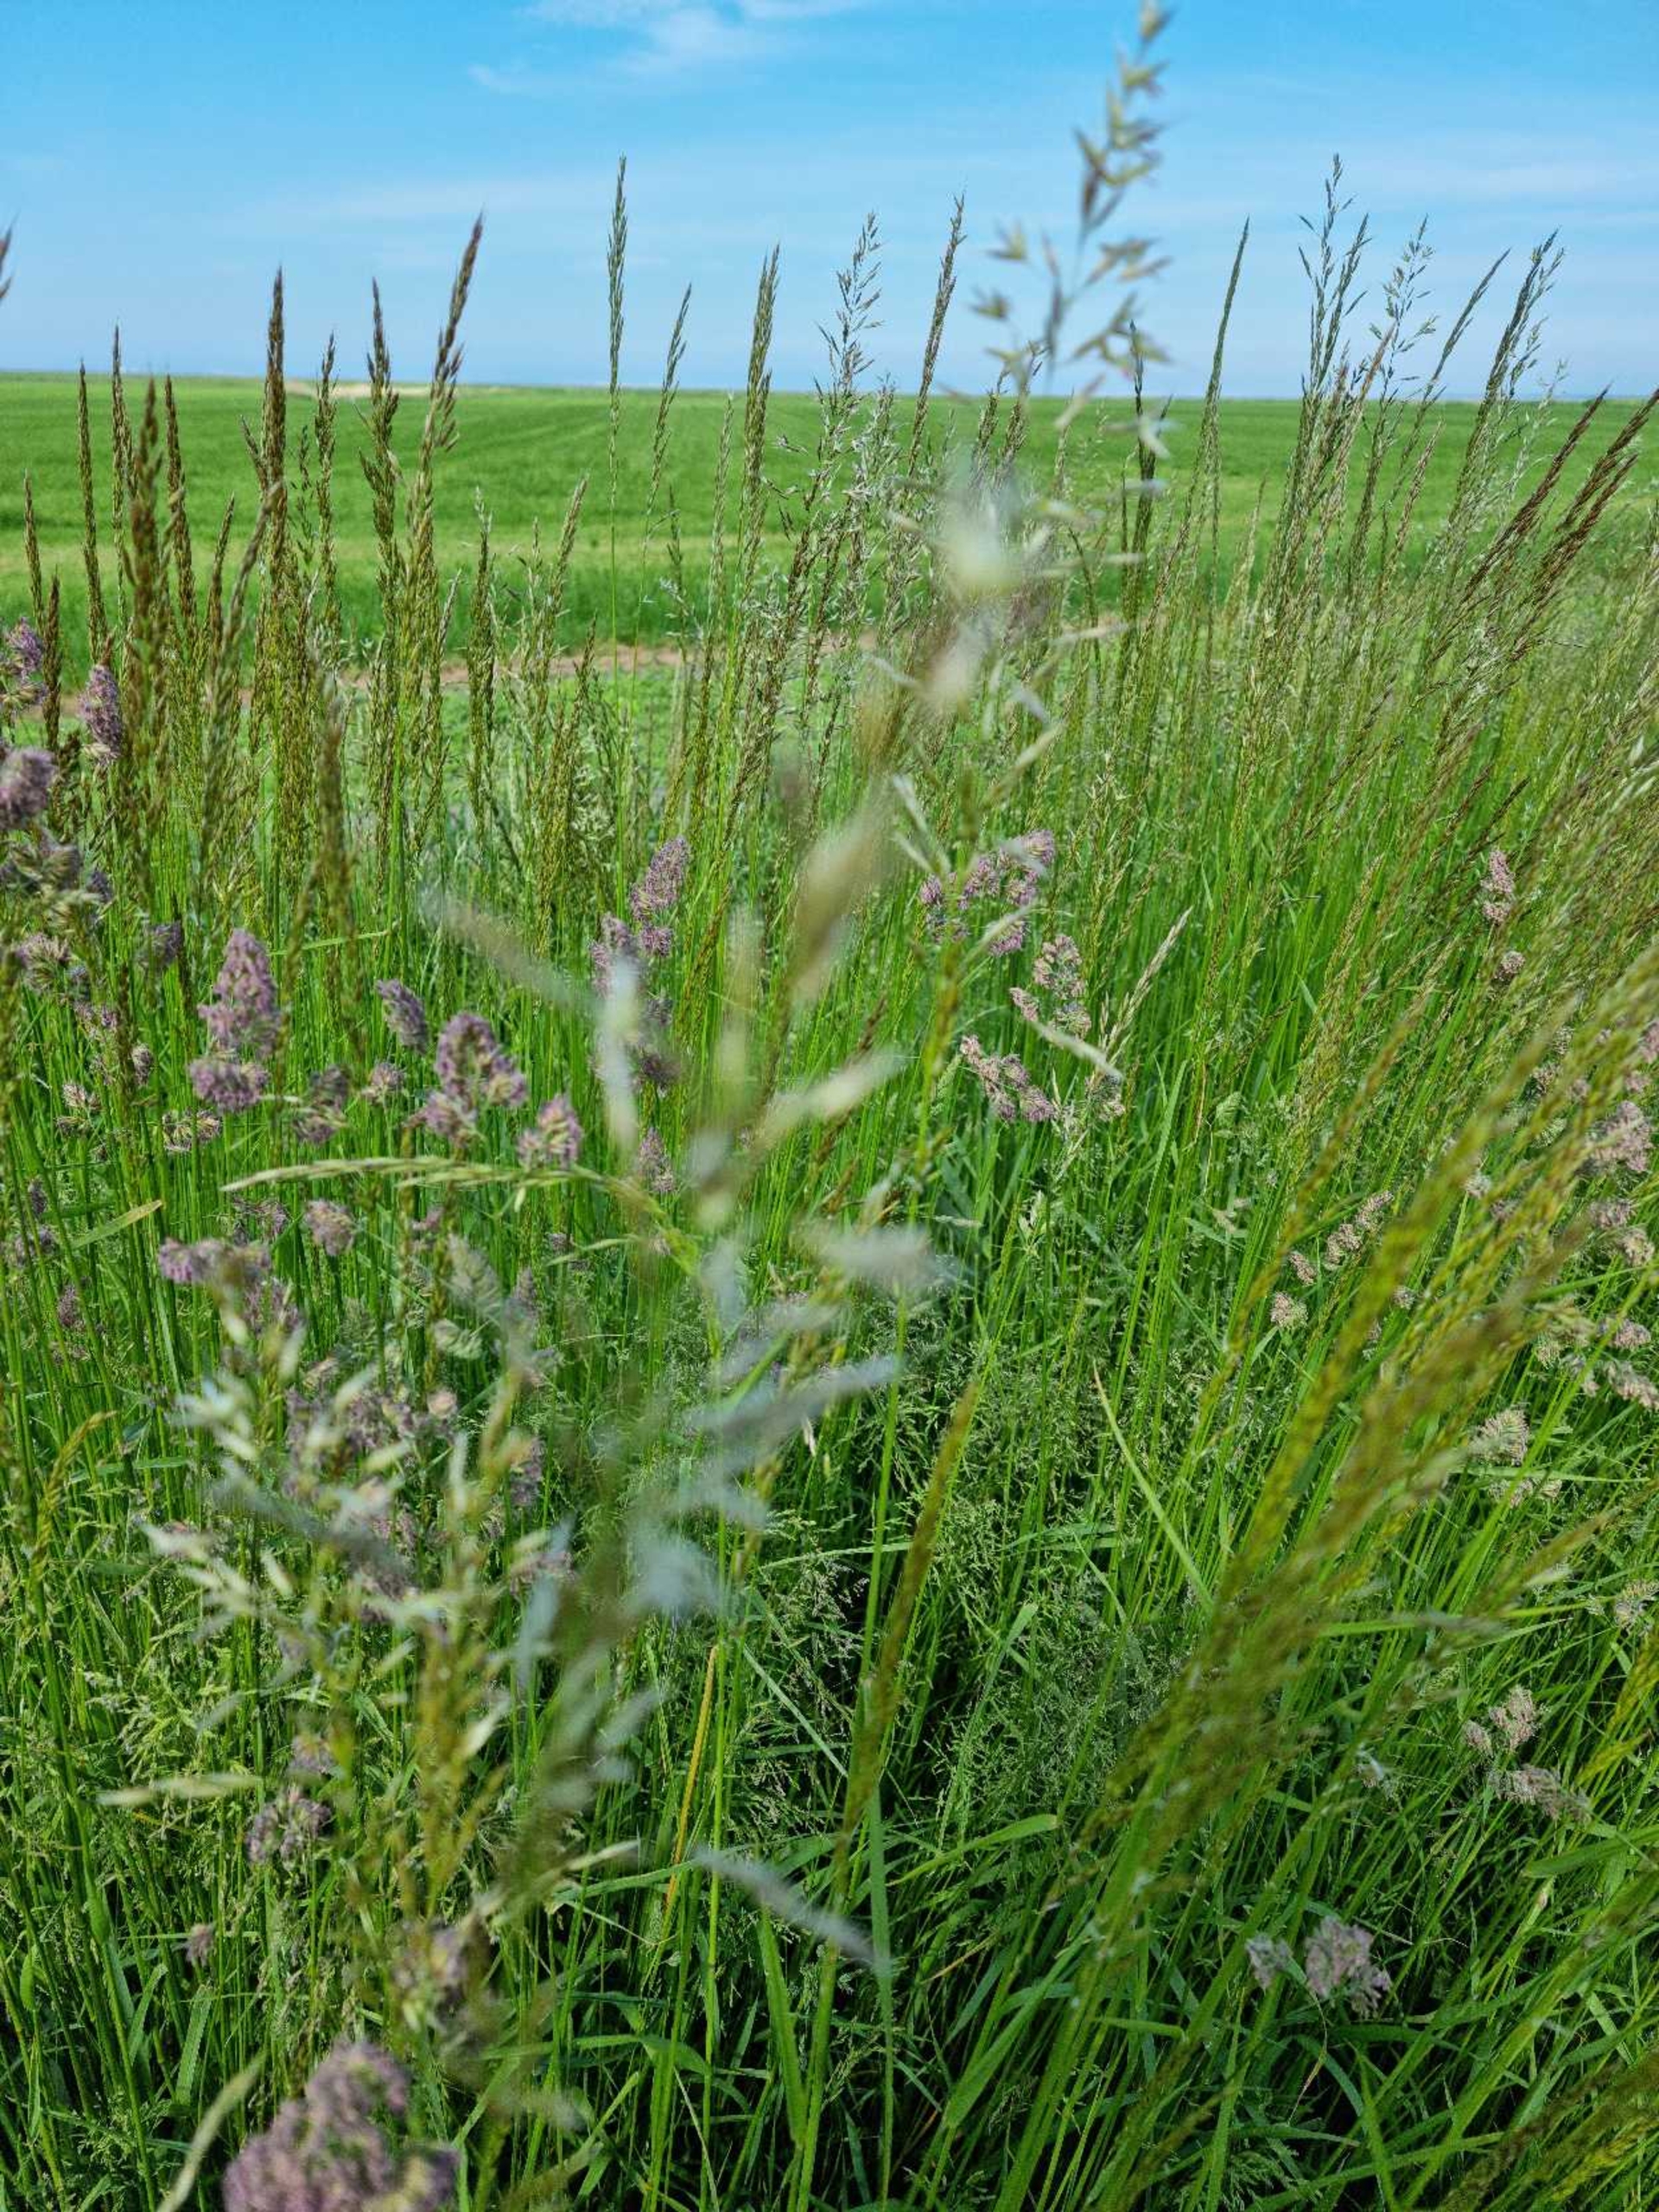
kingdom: Plantae
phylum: Tracheophyta
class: Liliopsida
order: Poales
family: Poaceae
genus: Arrhenatherum
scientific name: Arrhenatherum elatius
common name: Draphavre
